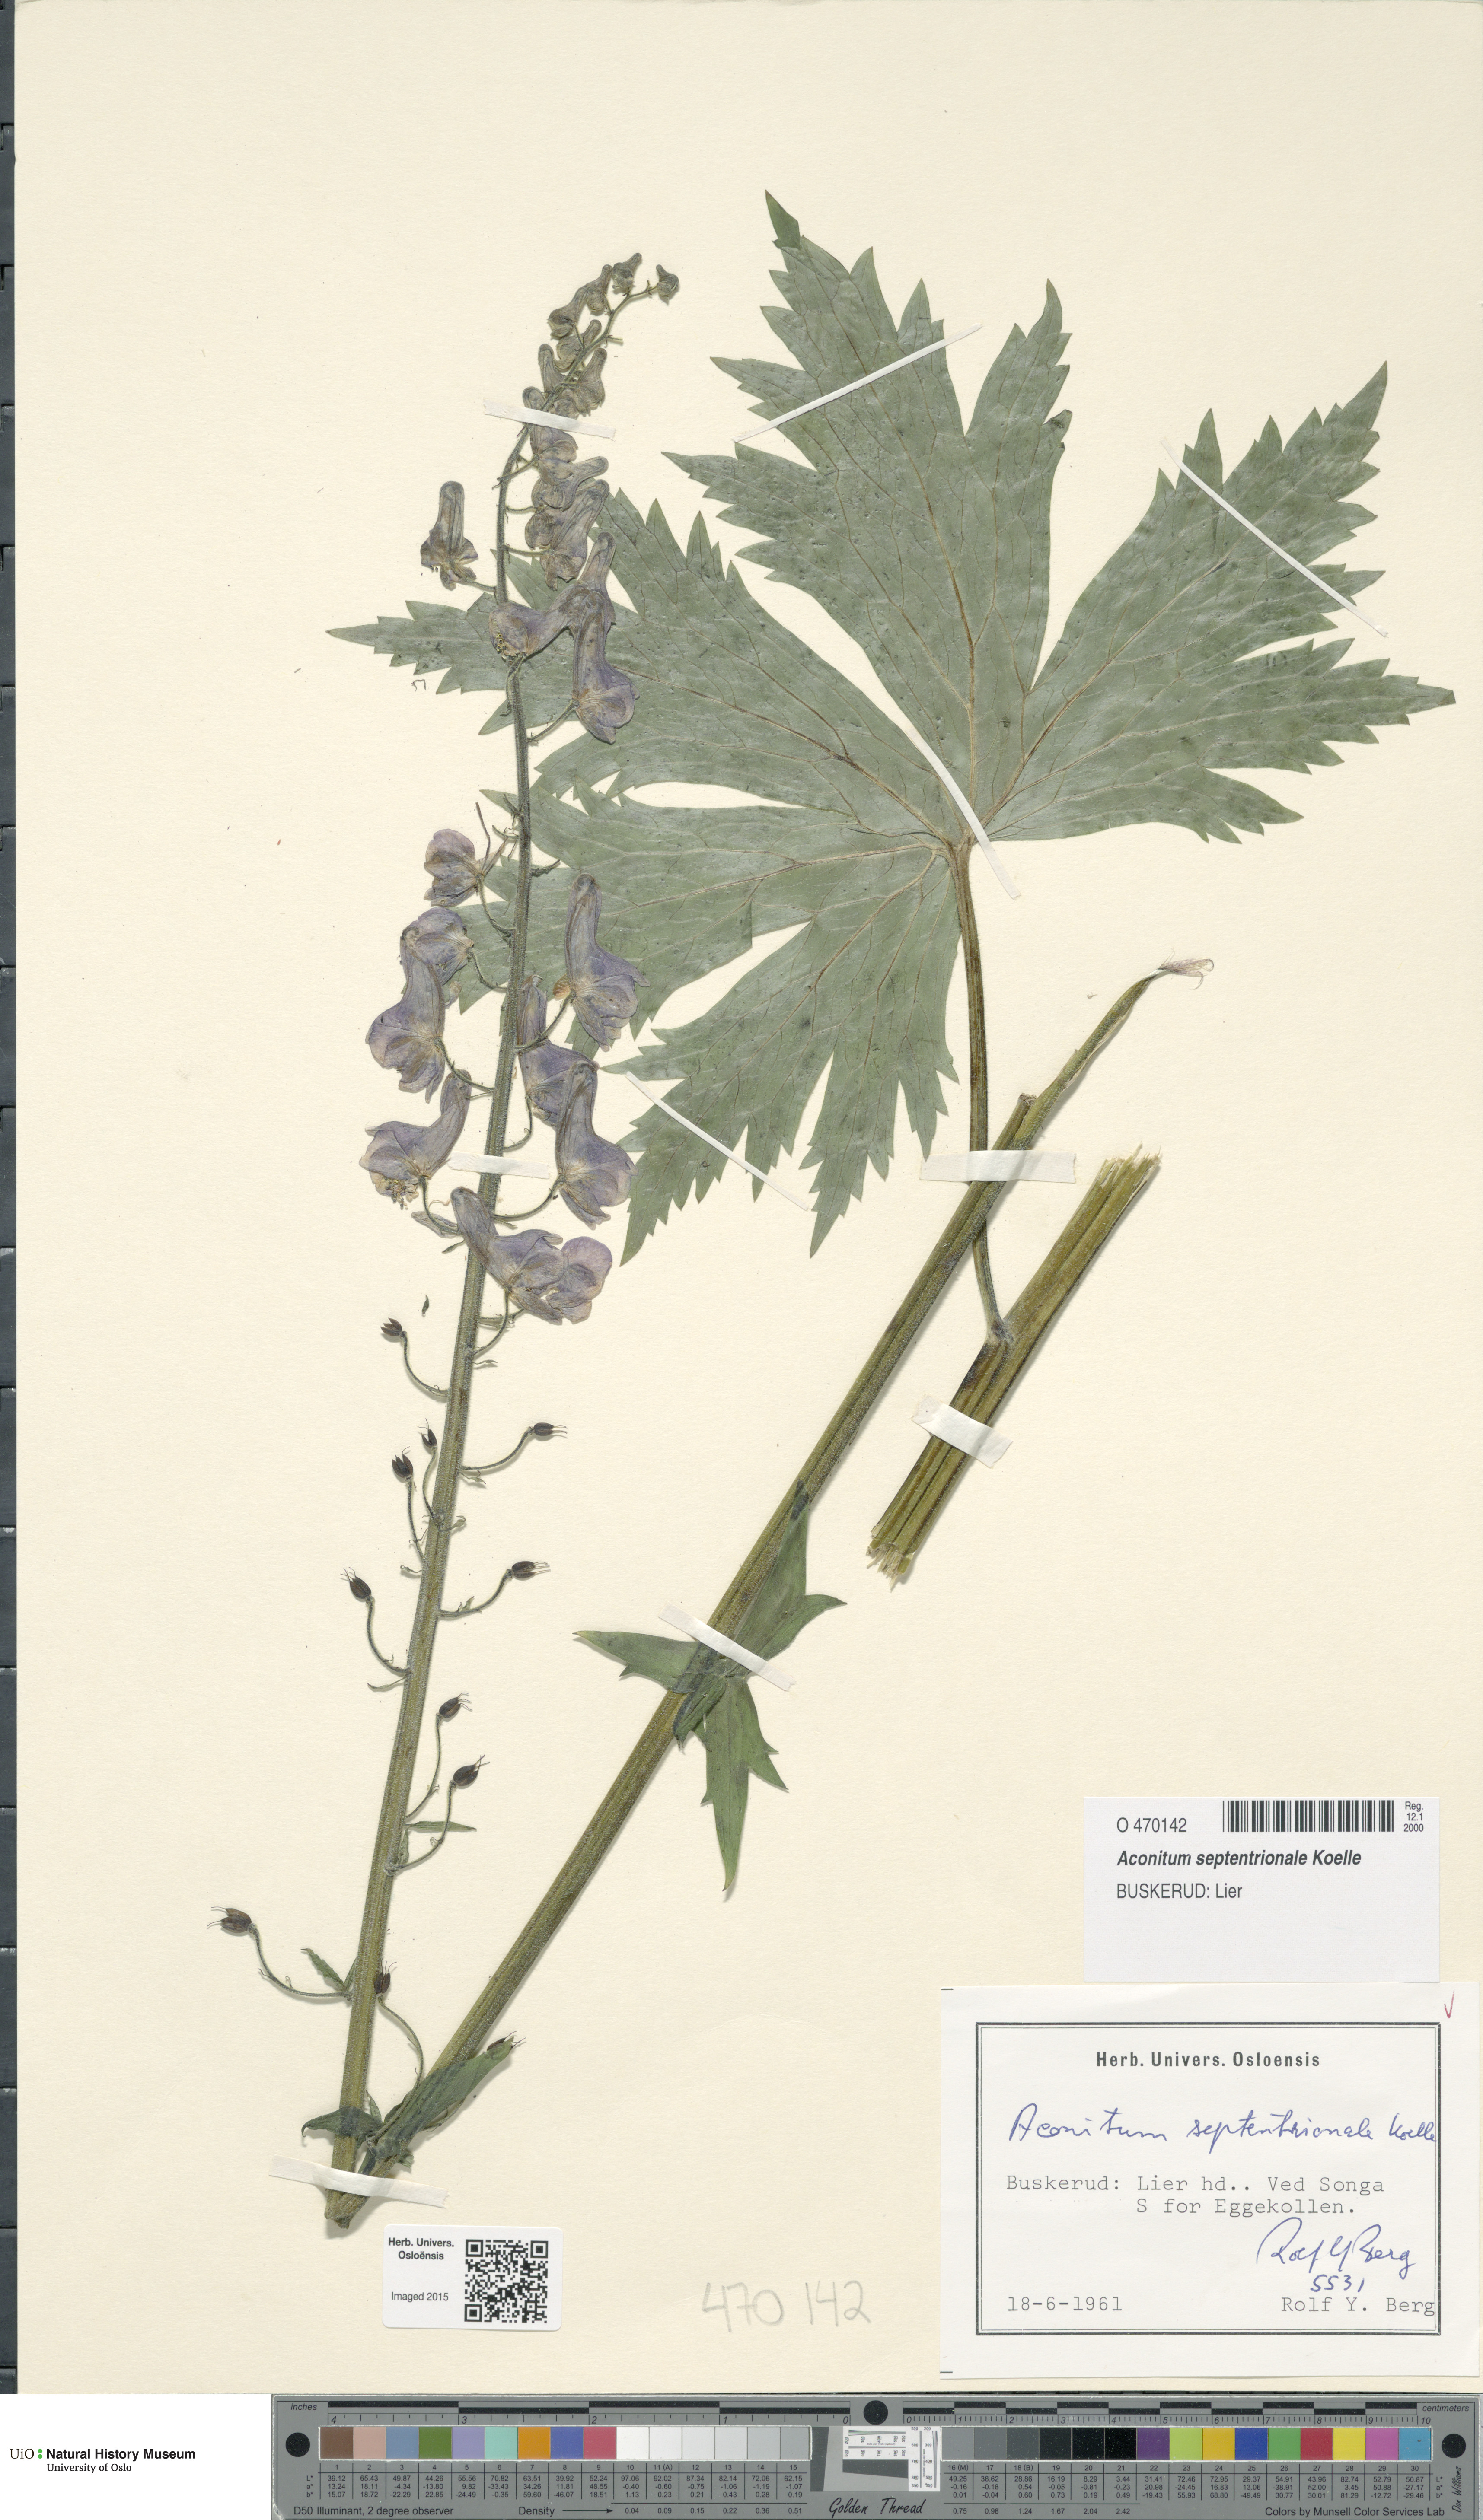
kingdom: Plantae
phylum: Tracheophyta
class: Magnoliopsida
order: Ranunculales
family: Ranunculaceae
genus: Aconitum
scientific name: Aconitum septentrionale
